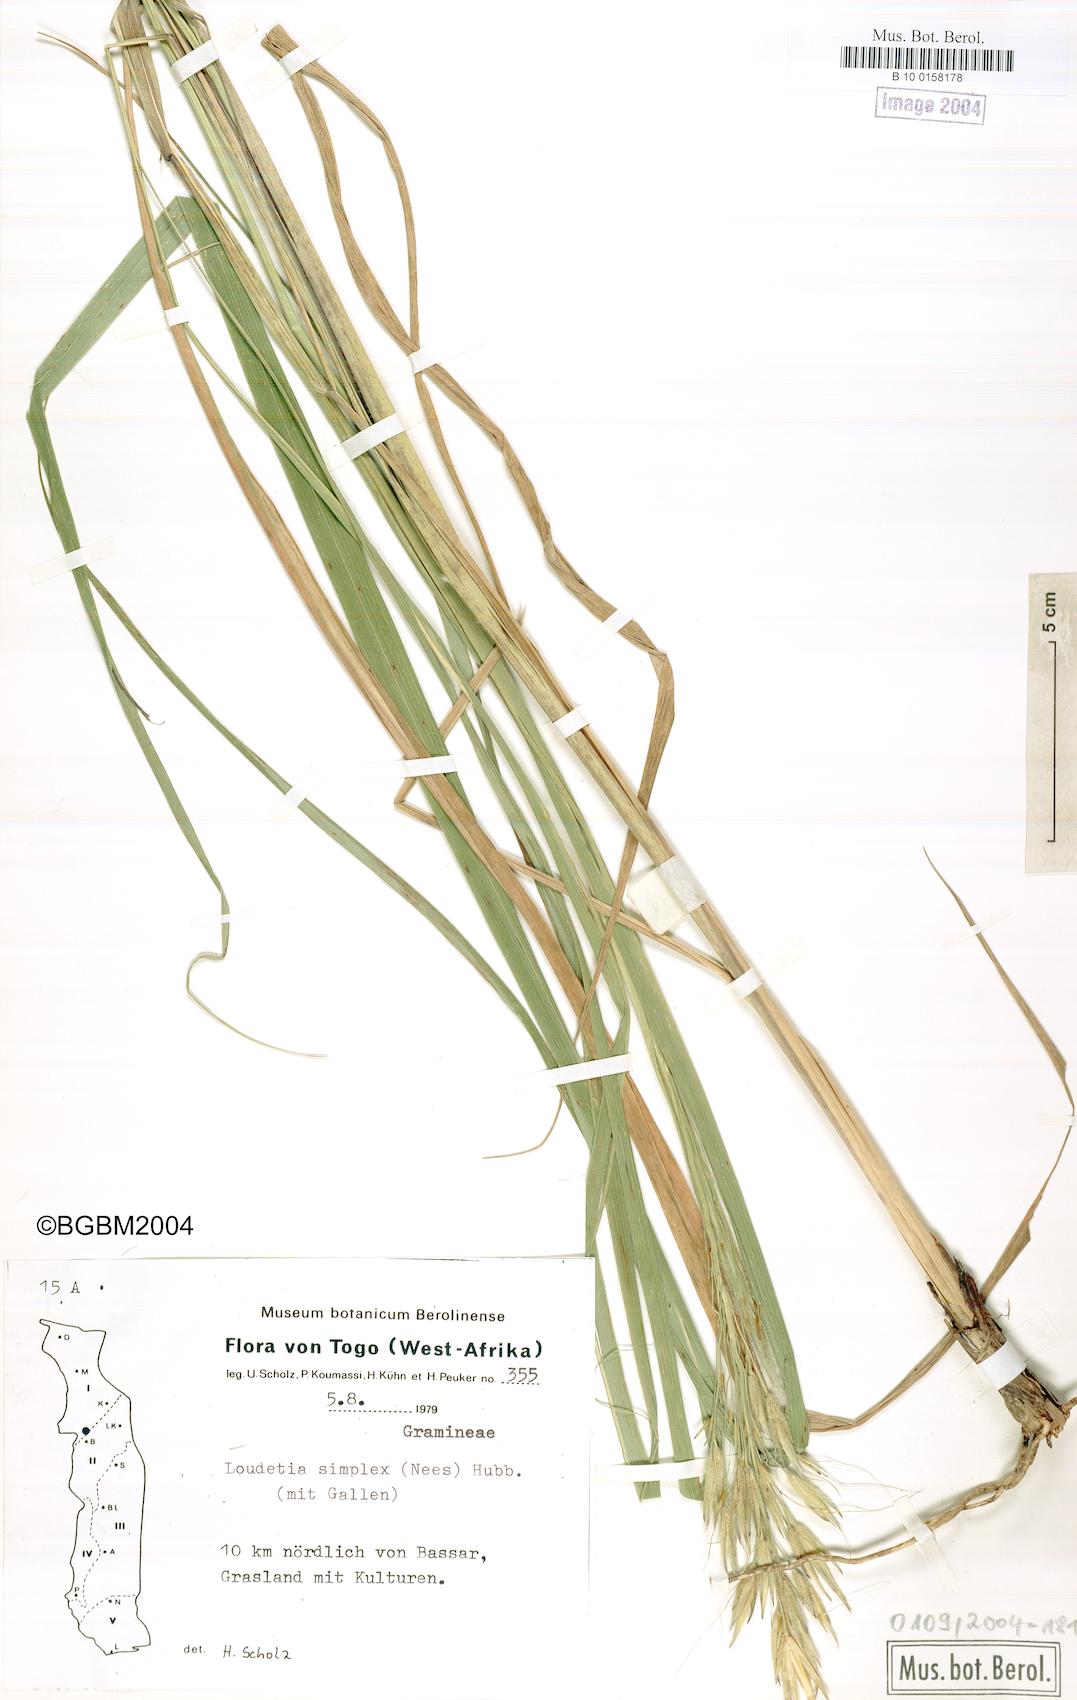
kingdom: Plantae
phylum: Tracheophyta
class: Liliopsida
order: Poales
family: Poaceae
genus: Loudetia
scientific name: Loudetia simplex
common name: Common russet grass
